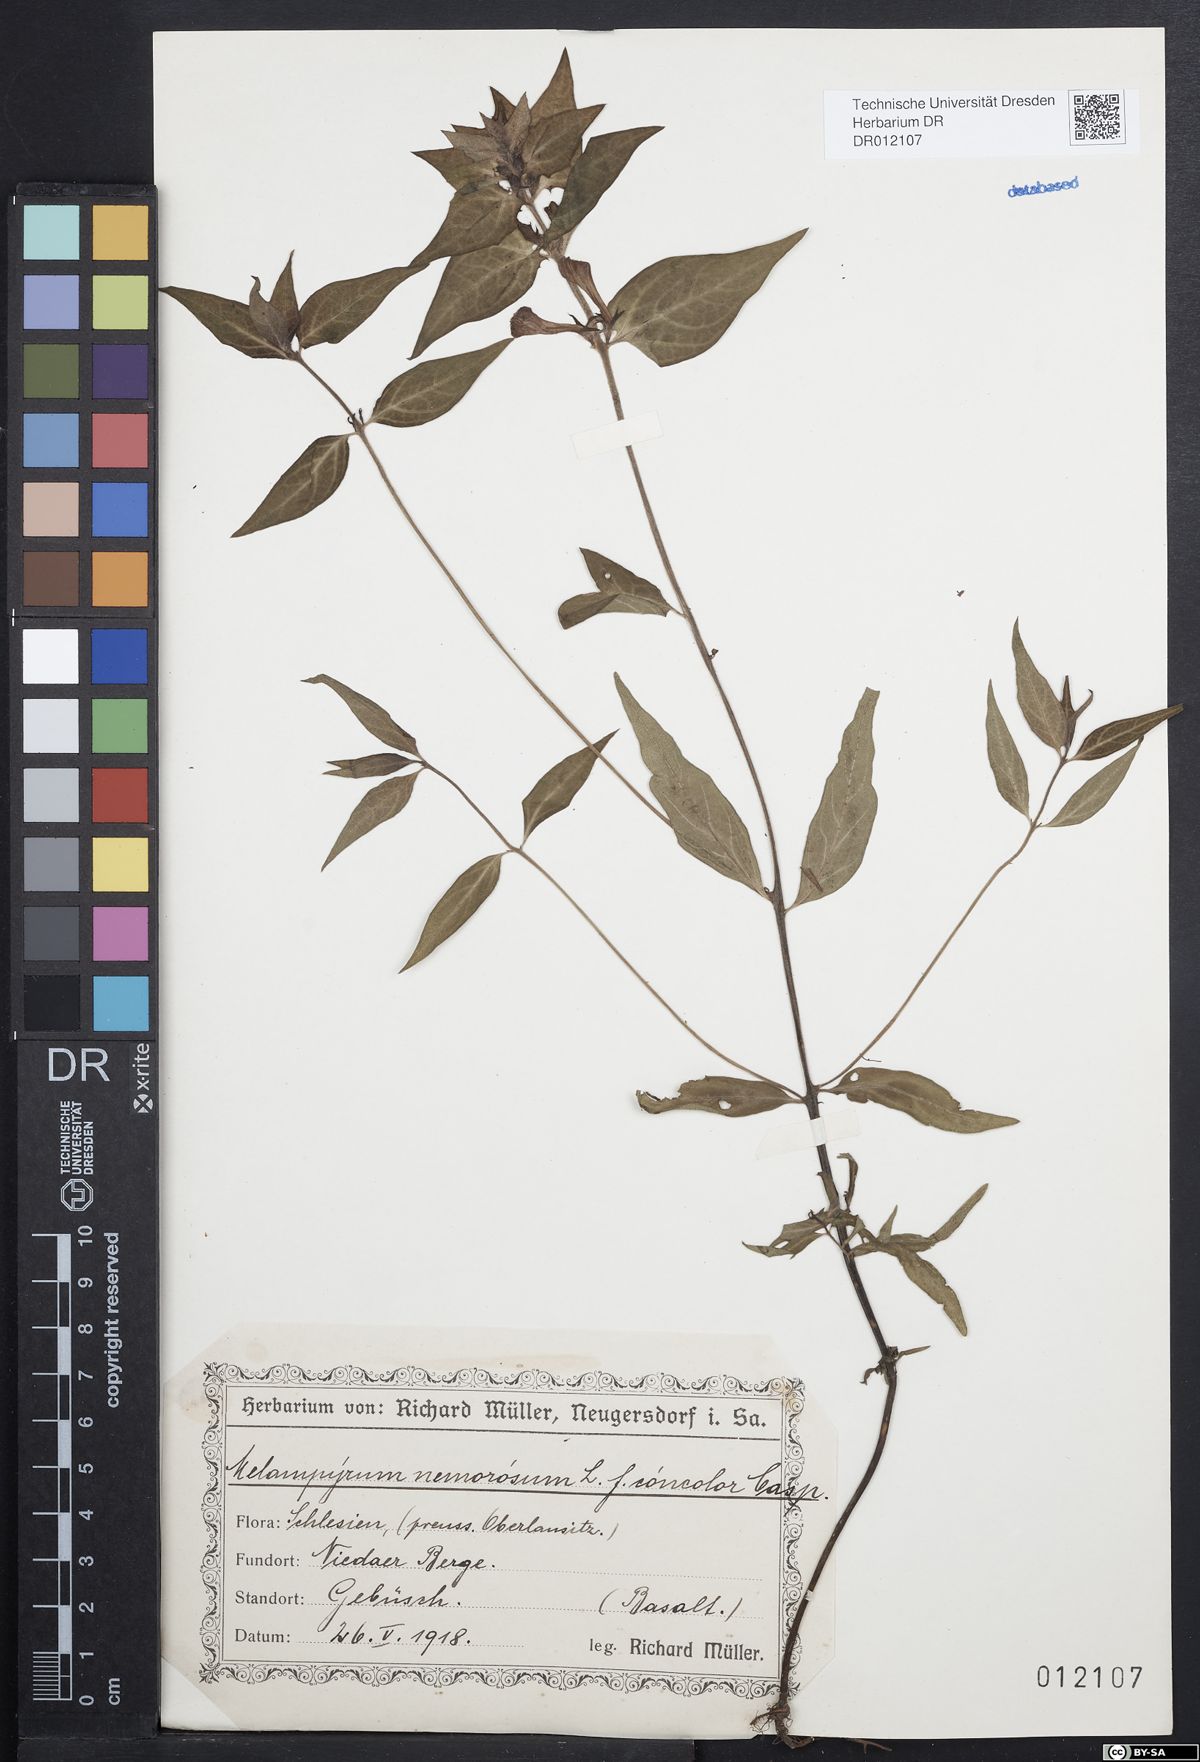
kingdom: Plantae
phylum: Tracheophyta
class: Magnoliopsida
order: Lamiales
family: Orobanchaceae
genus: Melampyrum
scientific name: Melampyrum nemorosum
